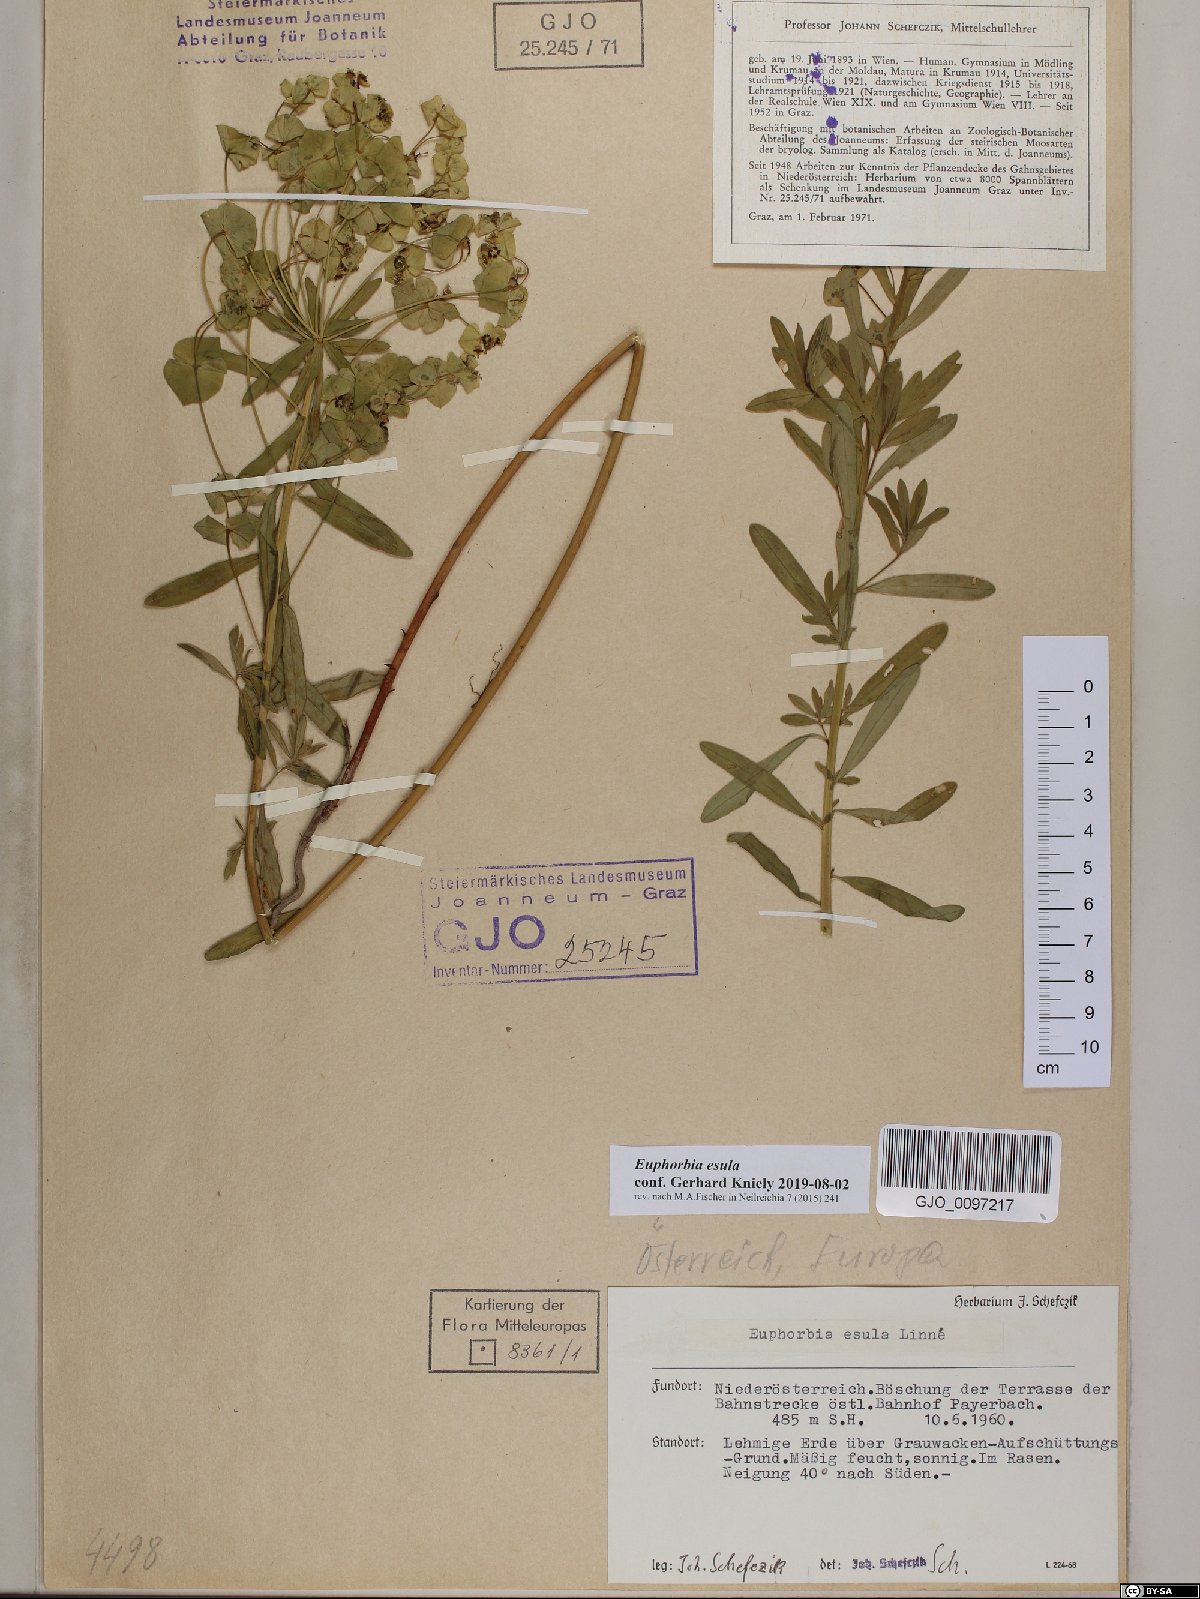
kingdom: Plantae
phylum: Tracheophyta
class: Magnoliopsida
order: Malpighiales
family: Euphorbiaceae
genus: Euphorbia
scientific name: Euphorbia esula
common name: Leafy spurge
